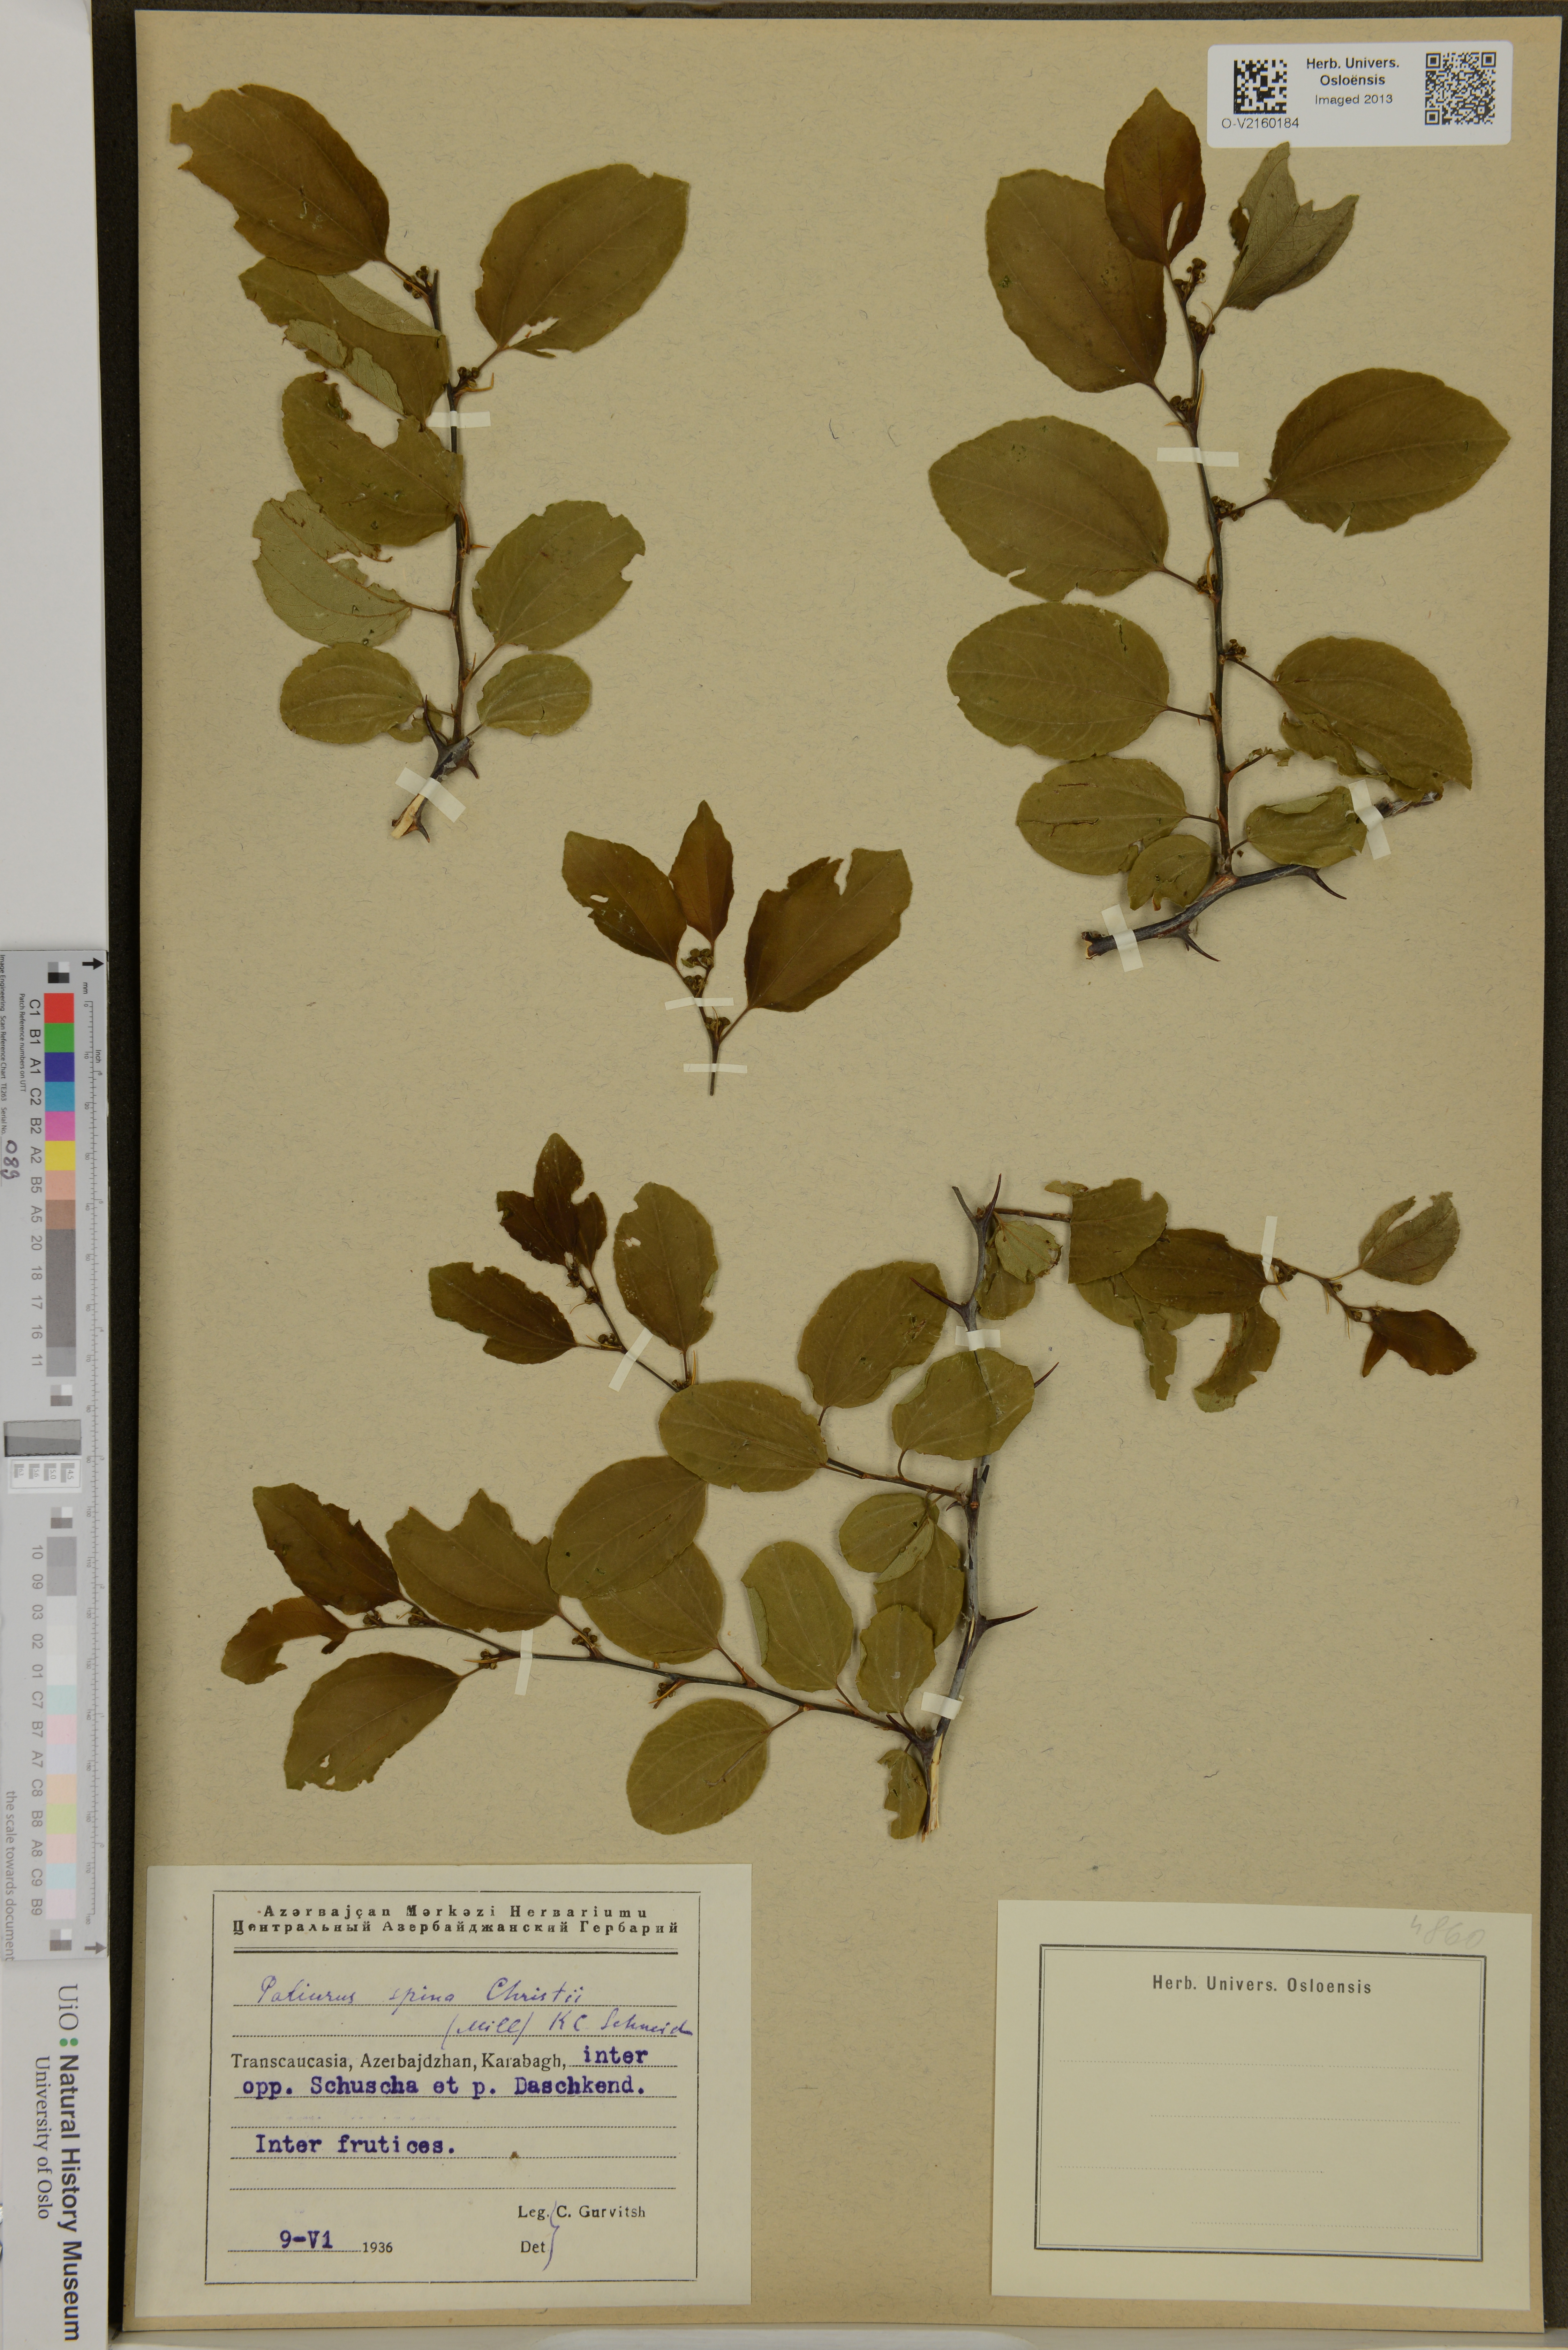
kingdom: Plantae
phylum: Tracheophyta
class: Magnoliopsida
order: Rosales
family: Rhamnaceae
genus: Paliurus
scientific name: Paliurus spina-christi
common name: Jeruselem thorn
